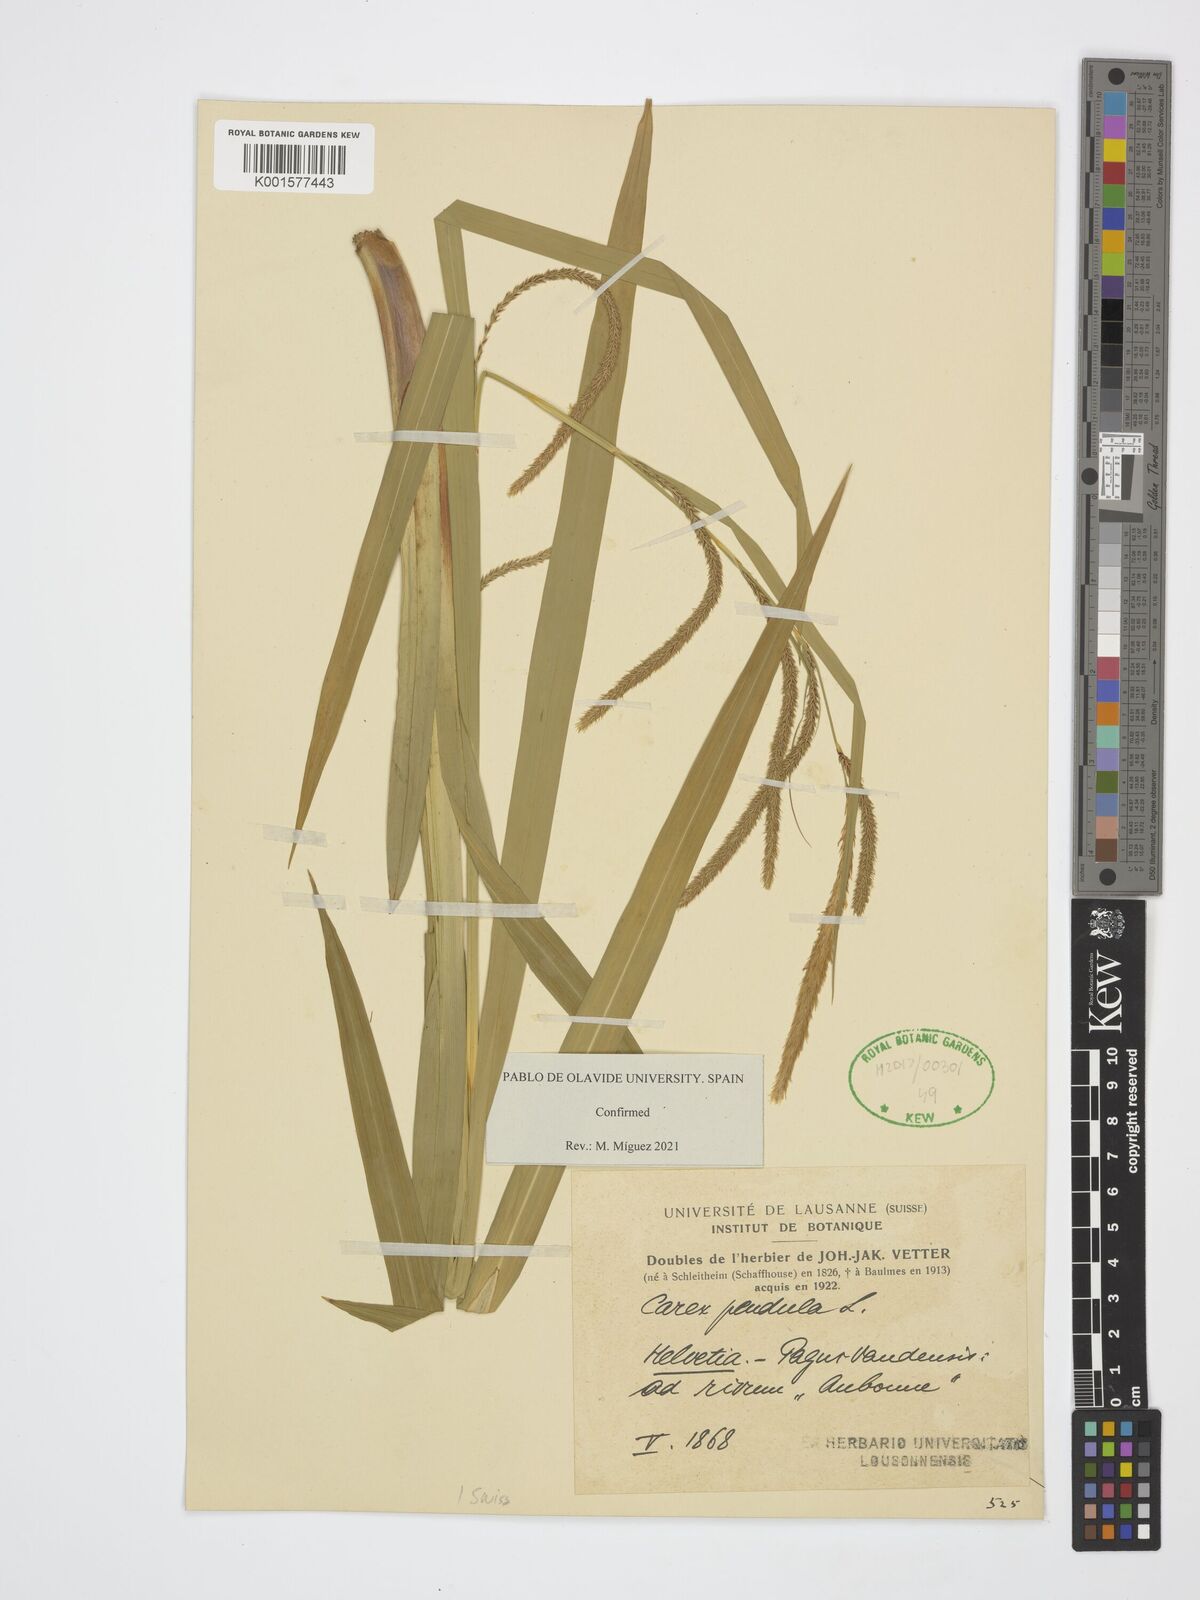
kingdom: Plantae
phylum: Tracheophyta
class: Liliopsida
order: Poales
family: Cyperaceae
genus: Carex
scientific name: Carex pendula
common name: Pendulous sedge
